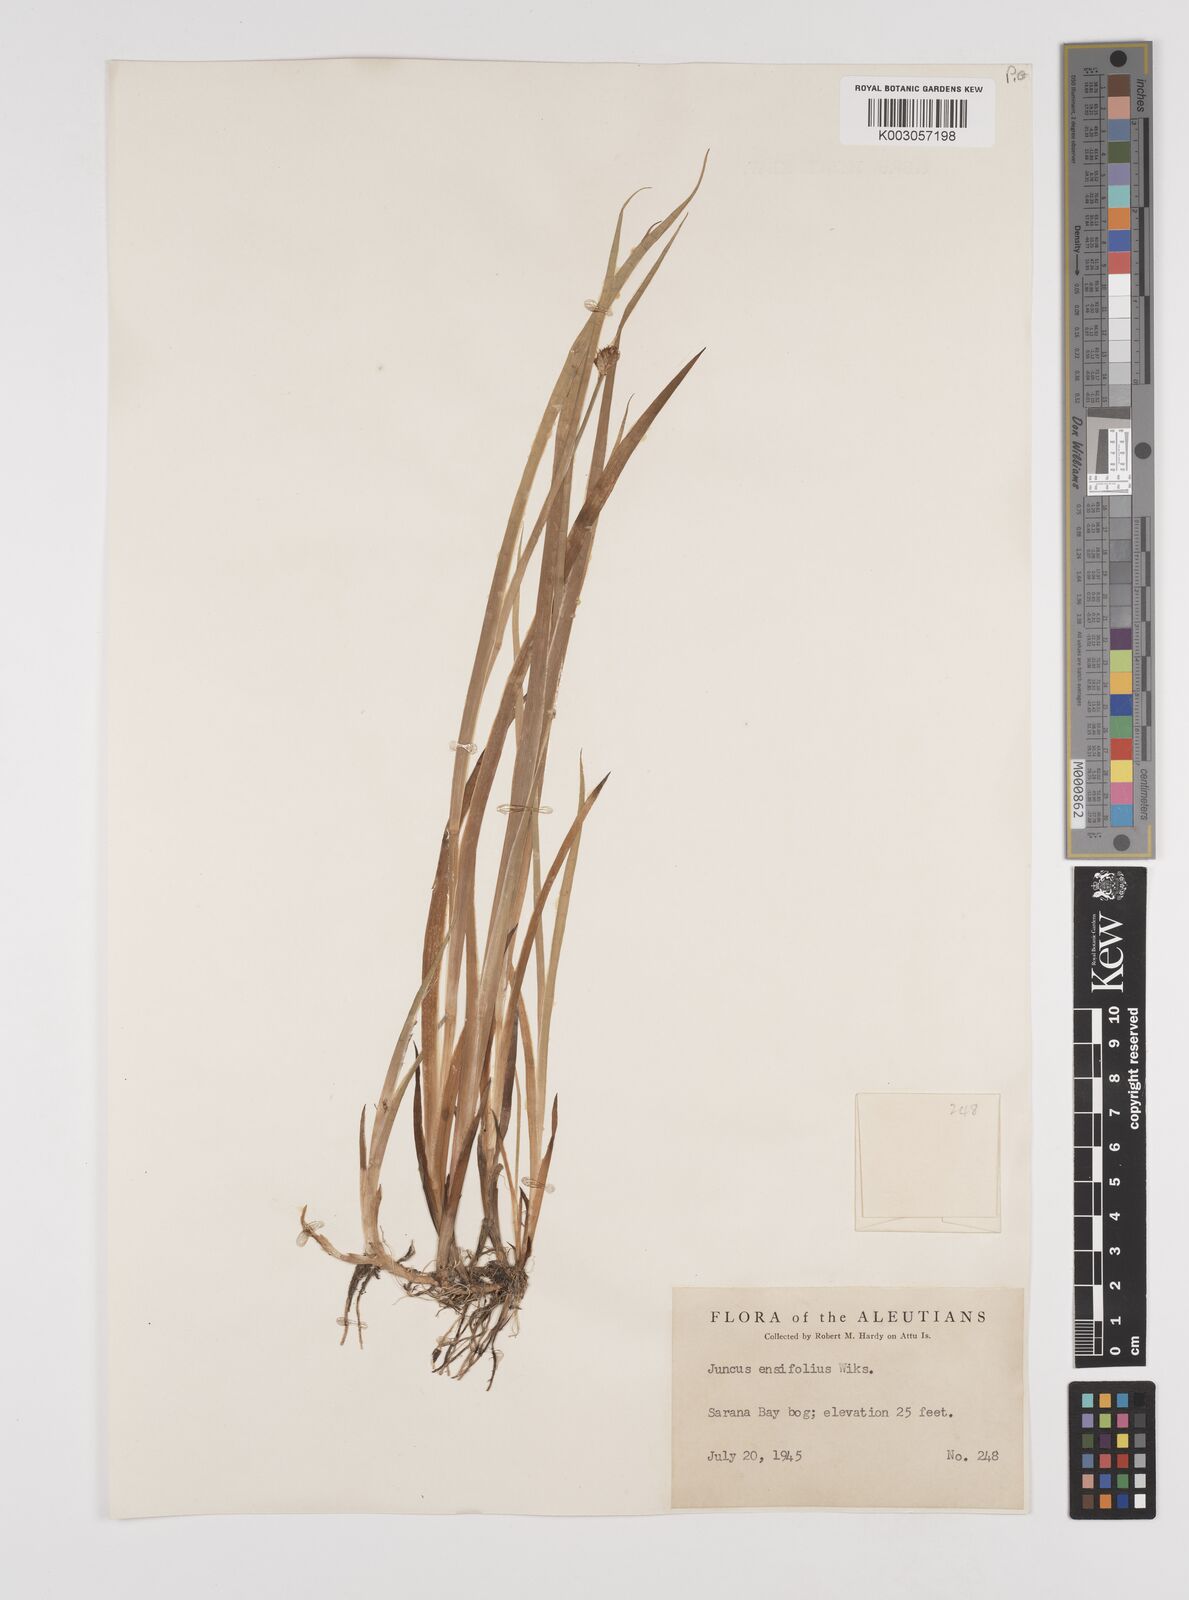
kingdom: Plantae
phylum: Tracheophyta
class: Liliopsida
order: Poales
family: Juncaceae
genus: Juncus
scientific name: Juncus ensifolius
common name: Sword-leaved rush
